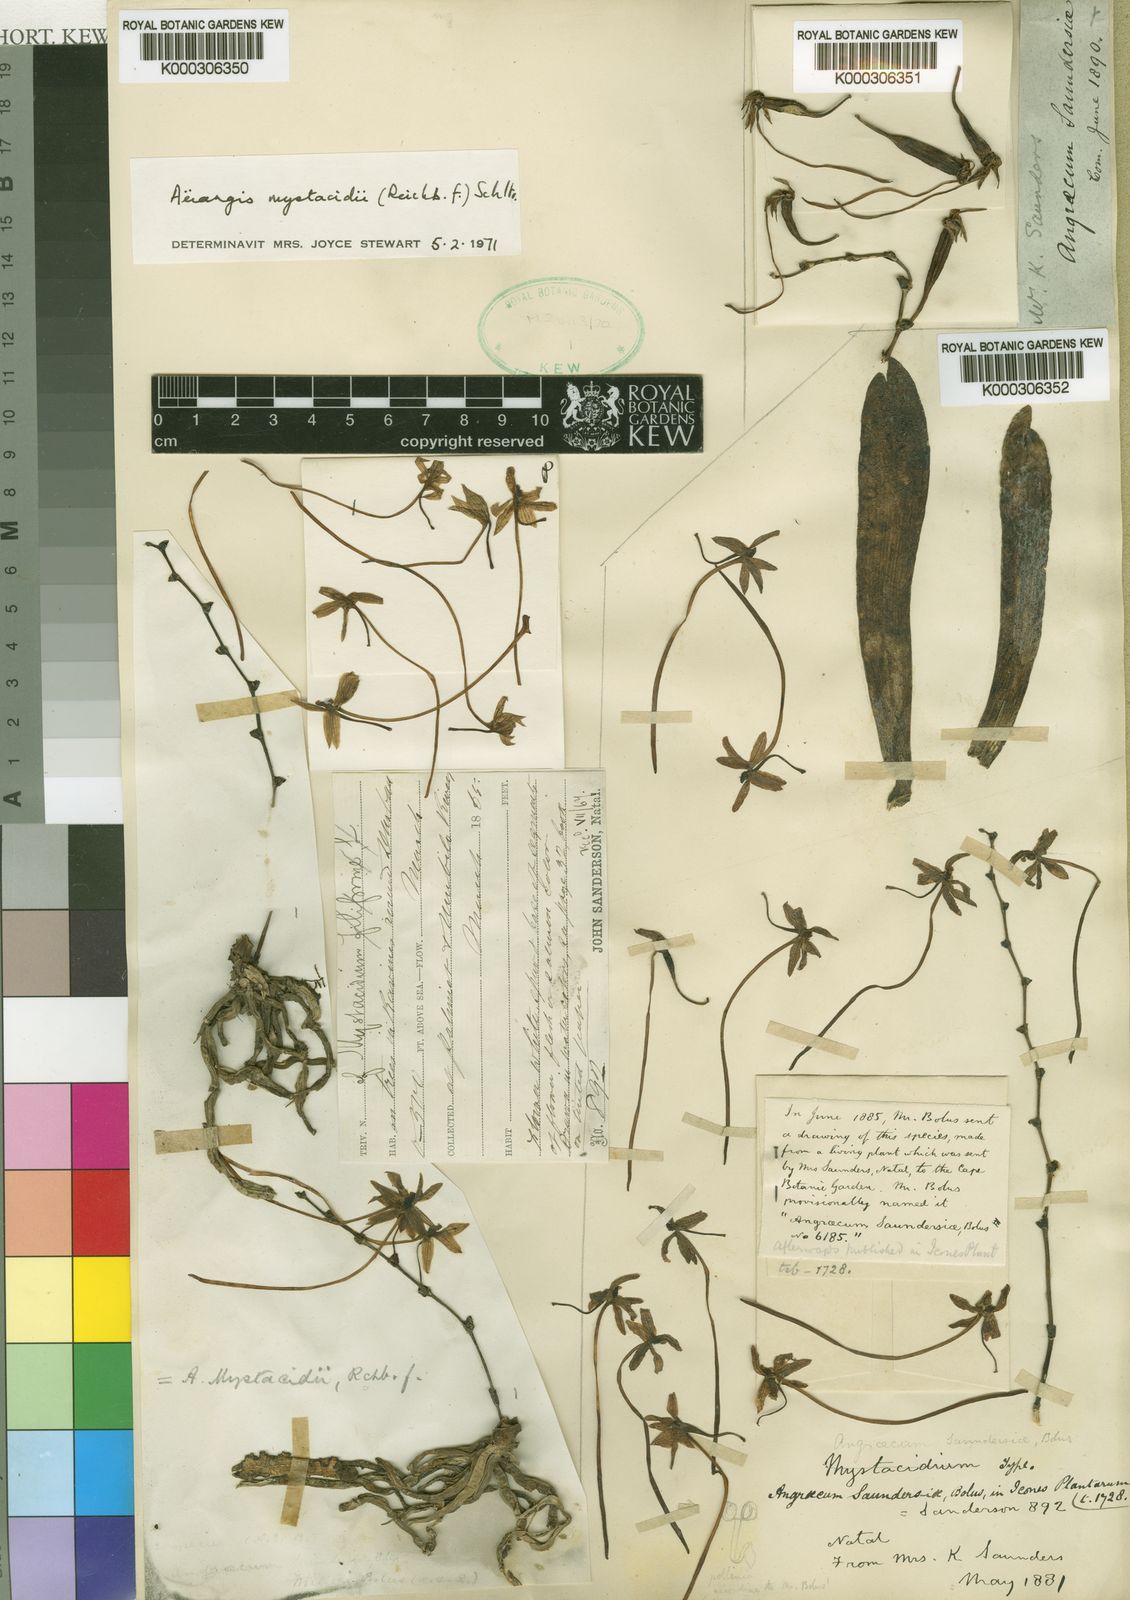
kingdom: Plantae
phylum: Tracheophyta
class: Liliopsida
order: Asparagales
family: Orchidaceae
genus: Aerangis
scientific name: Aerangis mystacidii
